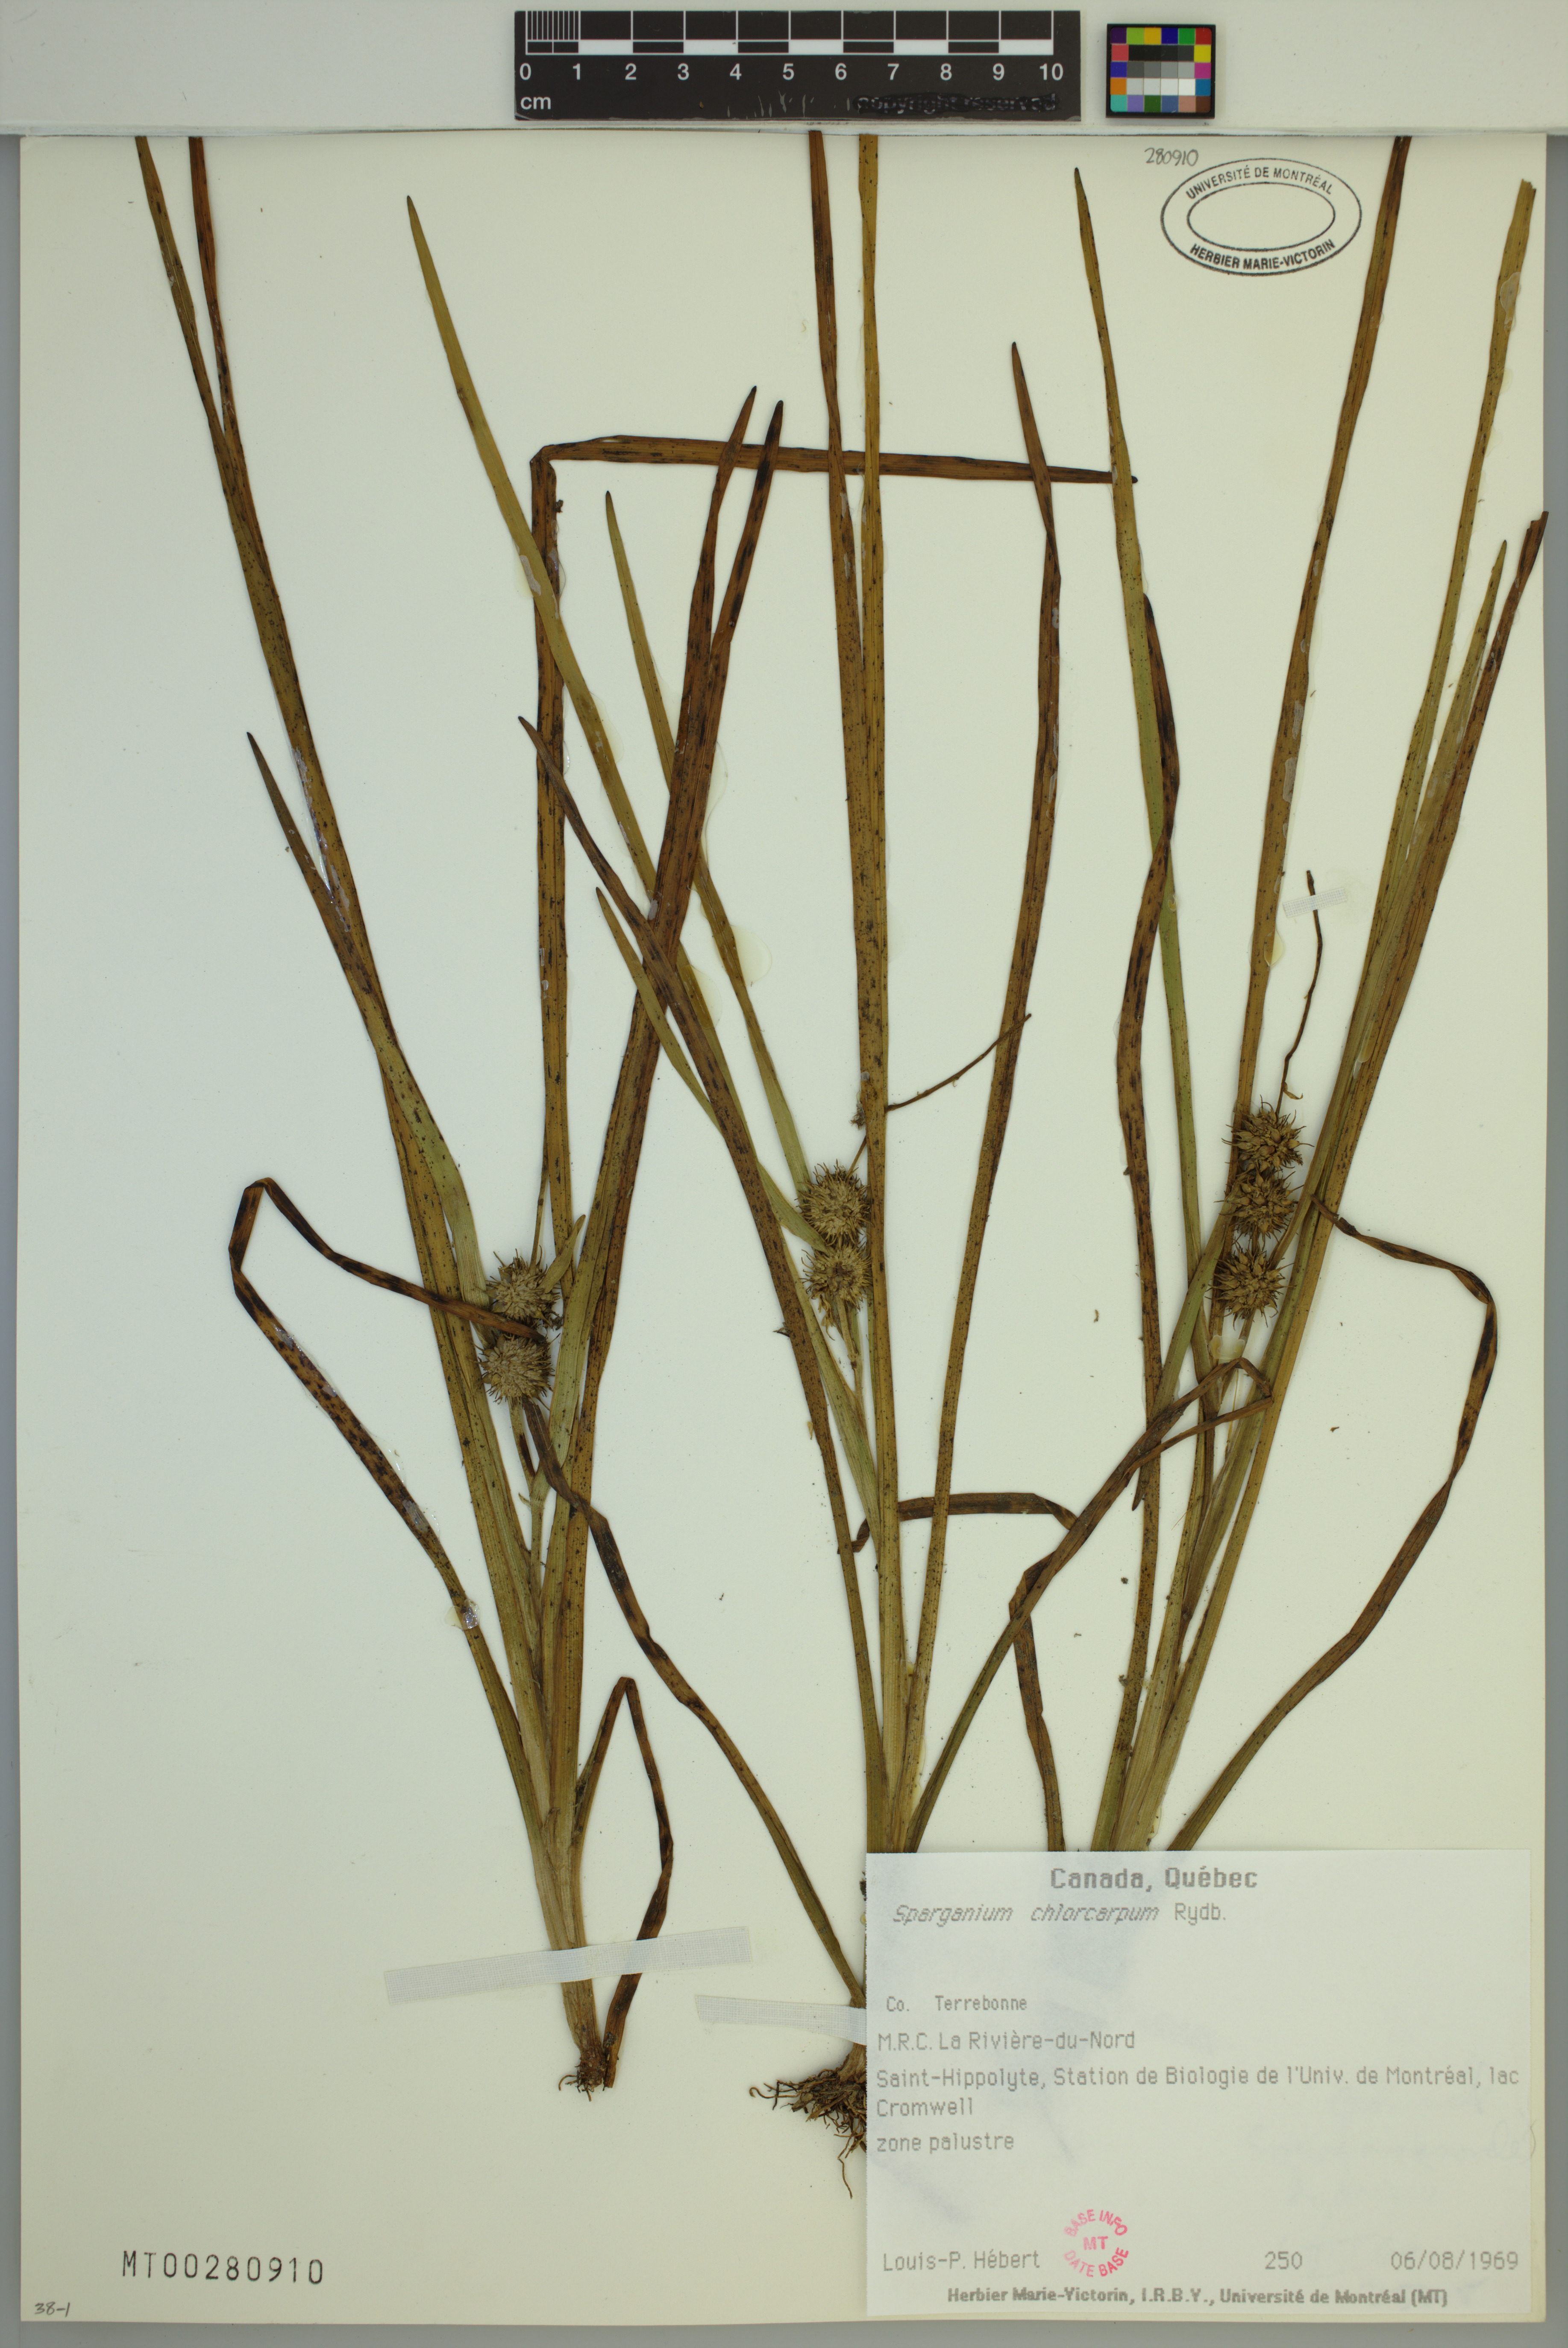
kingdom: Plantae
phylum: Tracheophyta
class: Liliopsida
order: Poales
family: Typhaceae
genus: Sparganium
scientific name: Sparganium emersum
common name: Unbranched bur-reed
